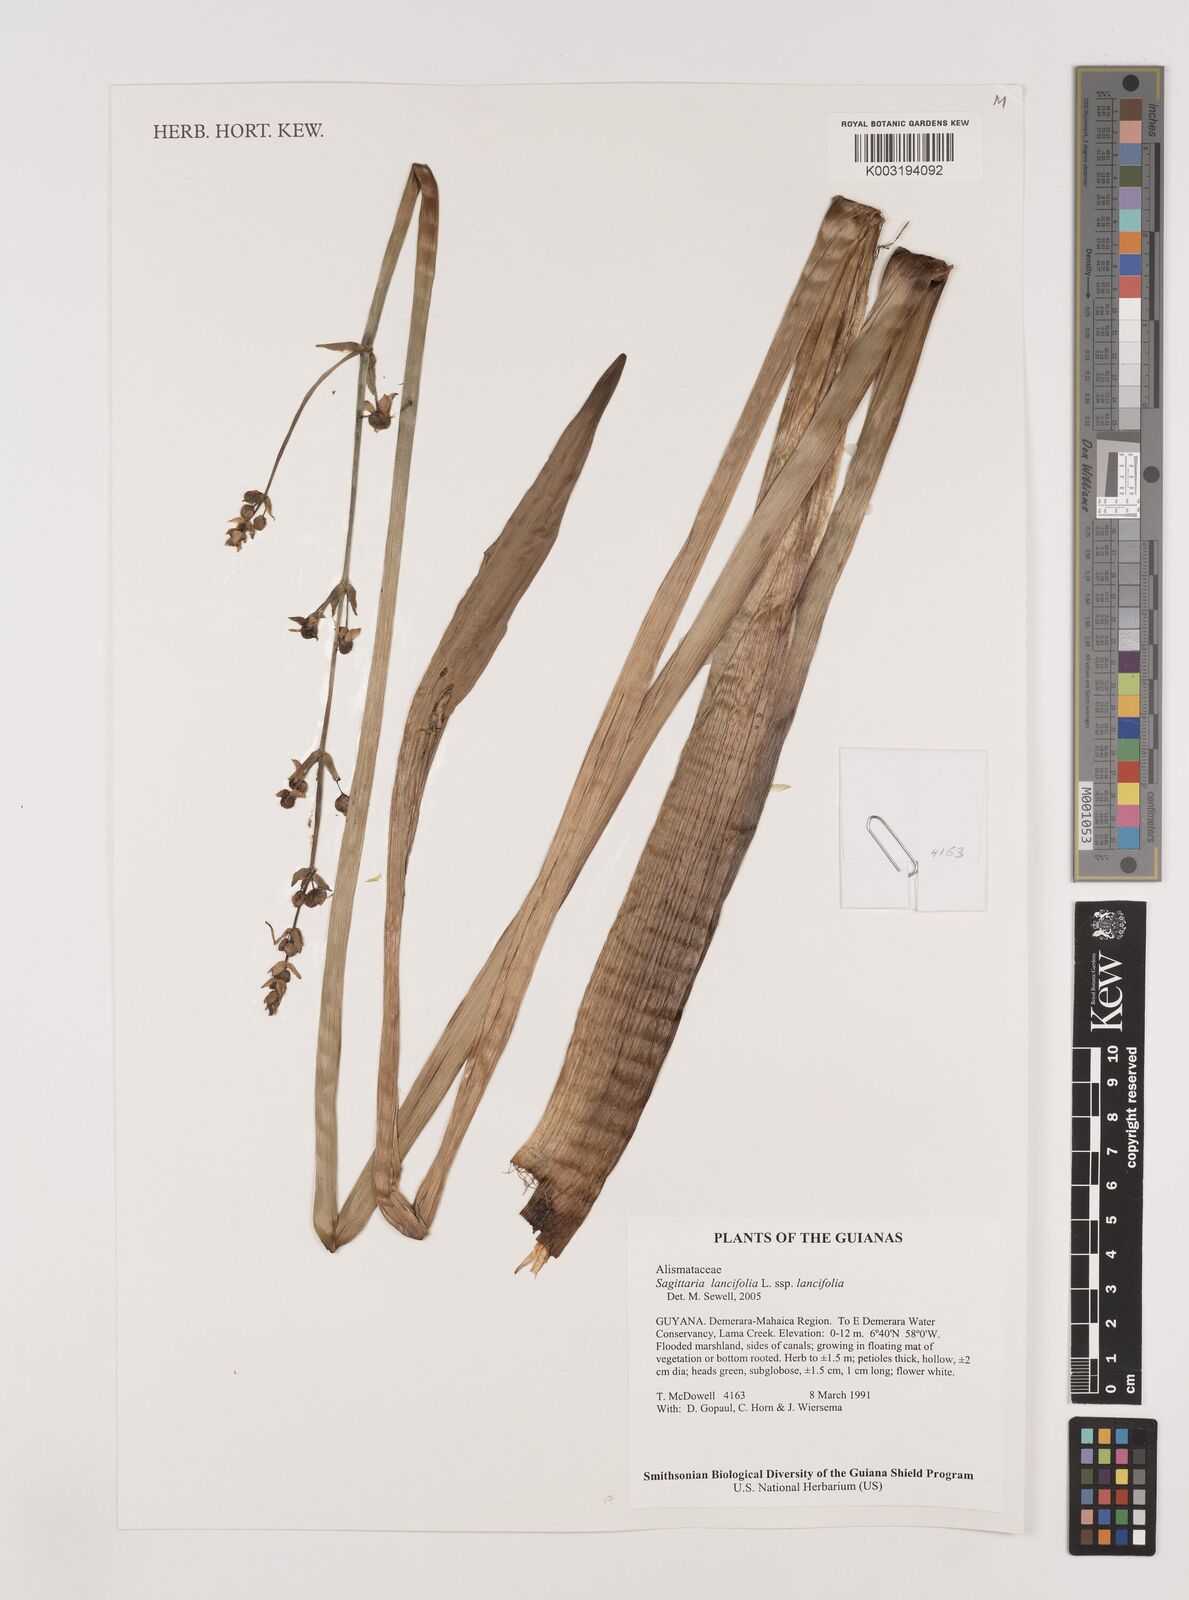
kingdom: Plantae
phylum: Tracheophyta
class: Liliopsida
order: Alismatales
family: Alismataceae
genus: Sagittaria
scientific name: Sagittaria lancifolia
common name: Lance-leaf arrowhead
